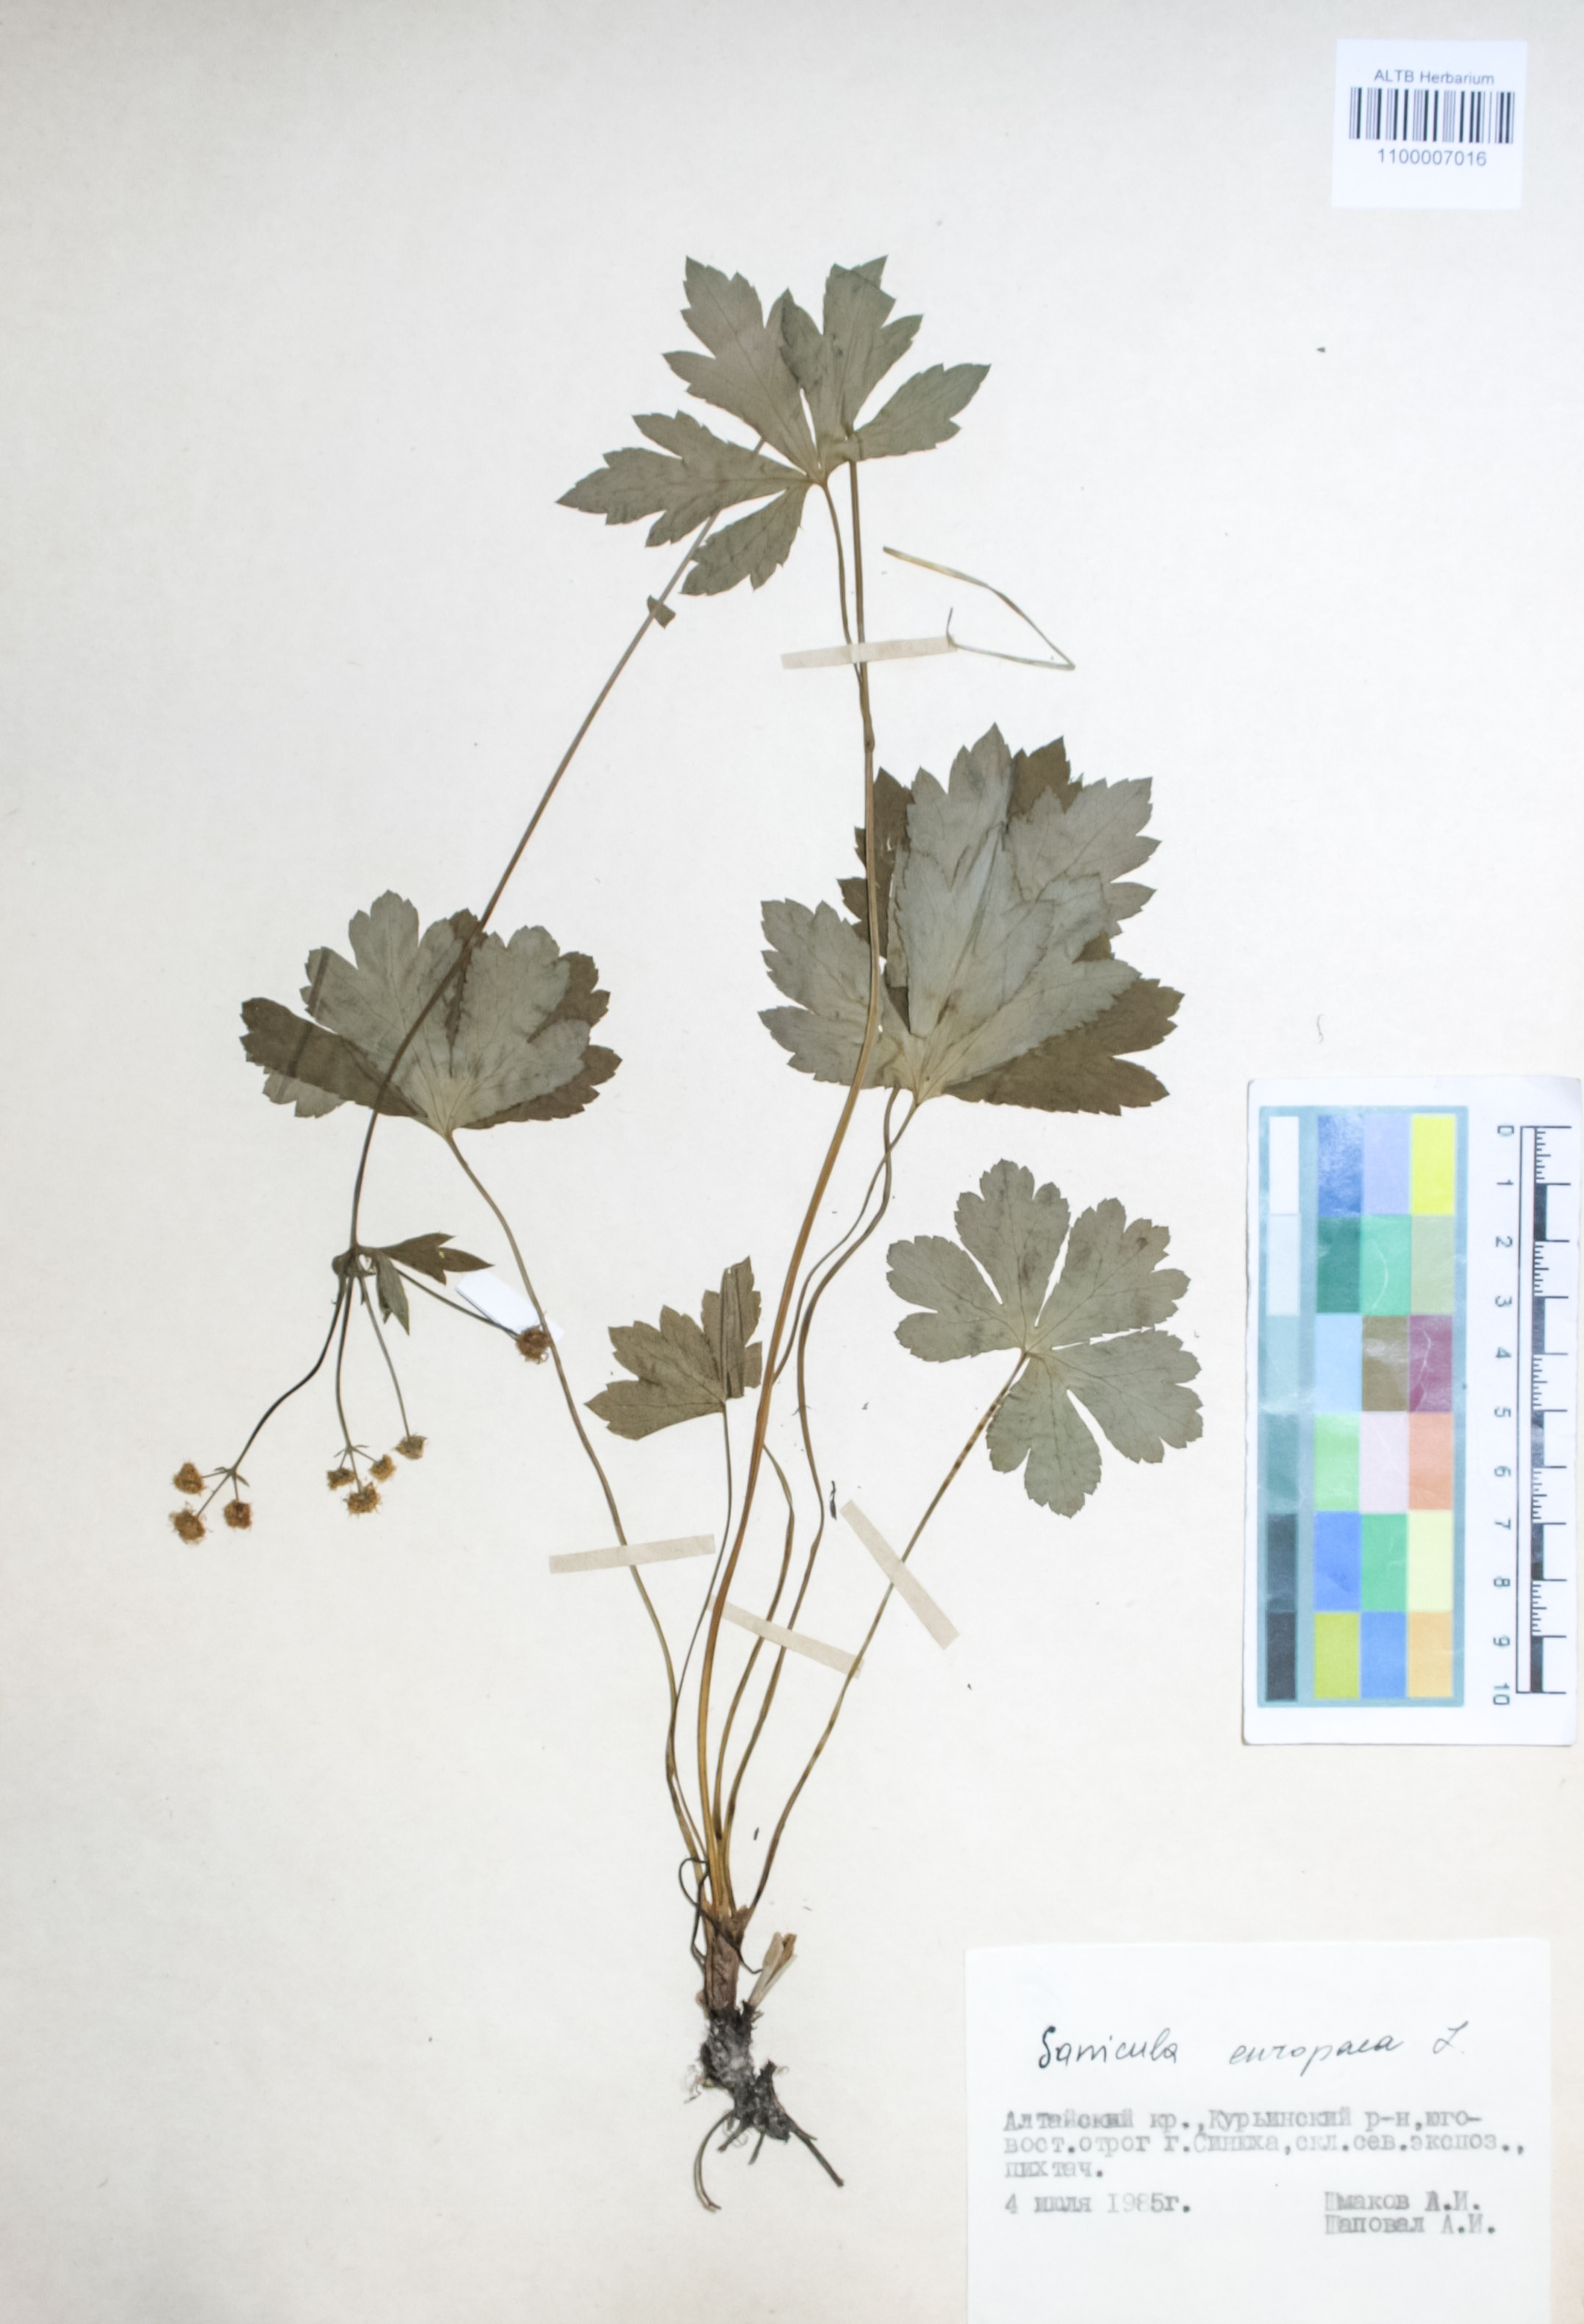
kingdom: Plantae
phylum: Tracheophyta
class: Magnoliopsida
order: Apiales
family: Apiaceae
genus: Sanicula
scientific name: Sanicula europaea
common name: Sanicle
